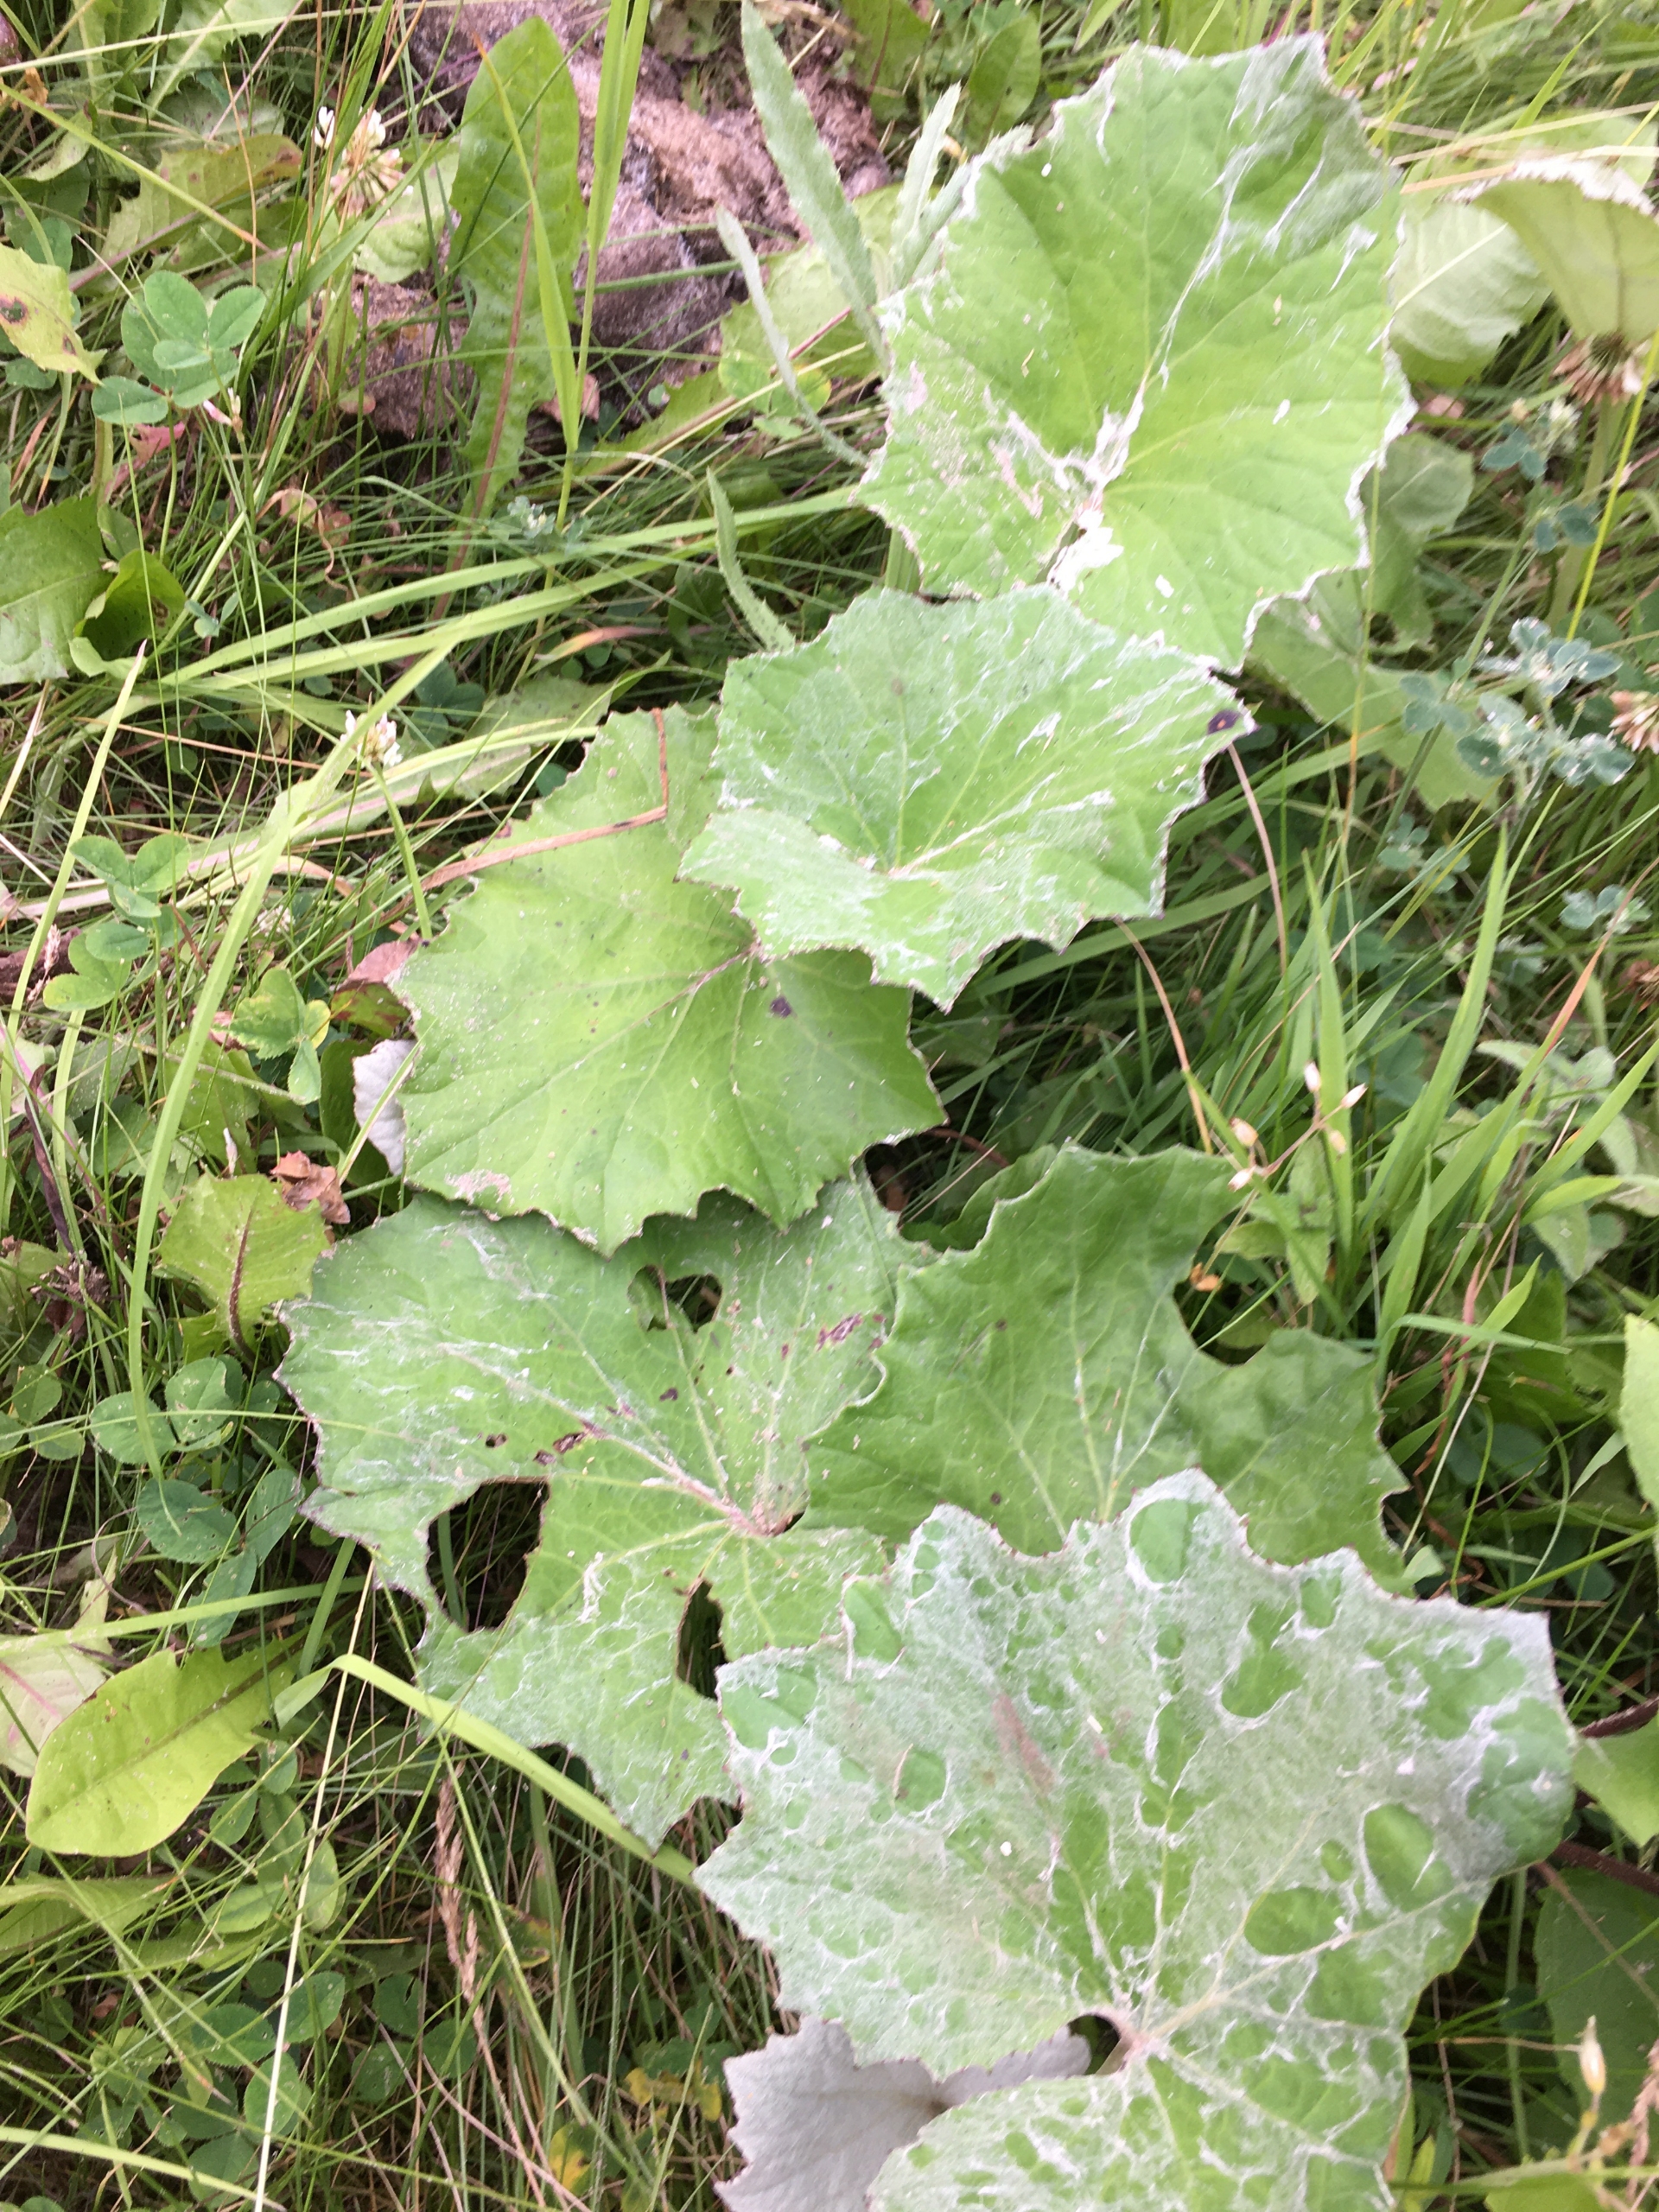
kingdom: Plantae
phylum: Tracheophyta
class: Magnoliopsida
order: Asterales
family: Asteraceae
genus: Tussilago
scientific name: Tussilago farfara
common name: Følfod
